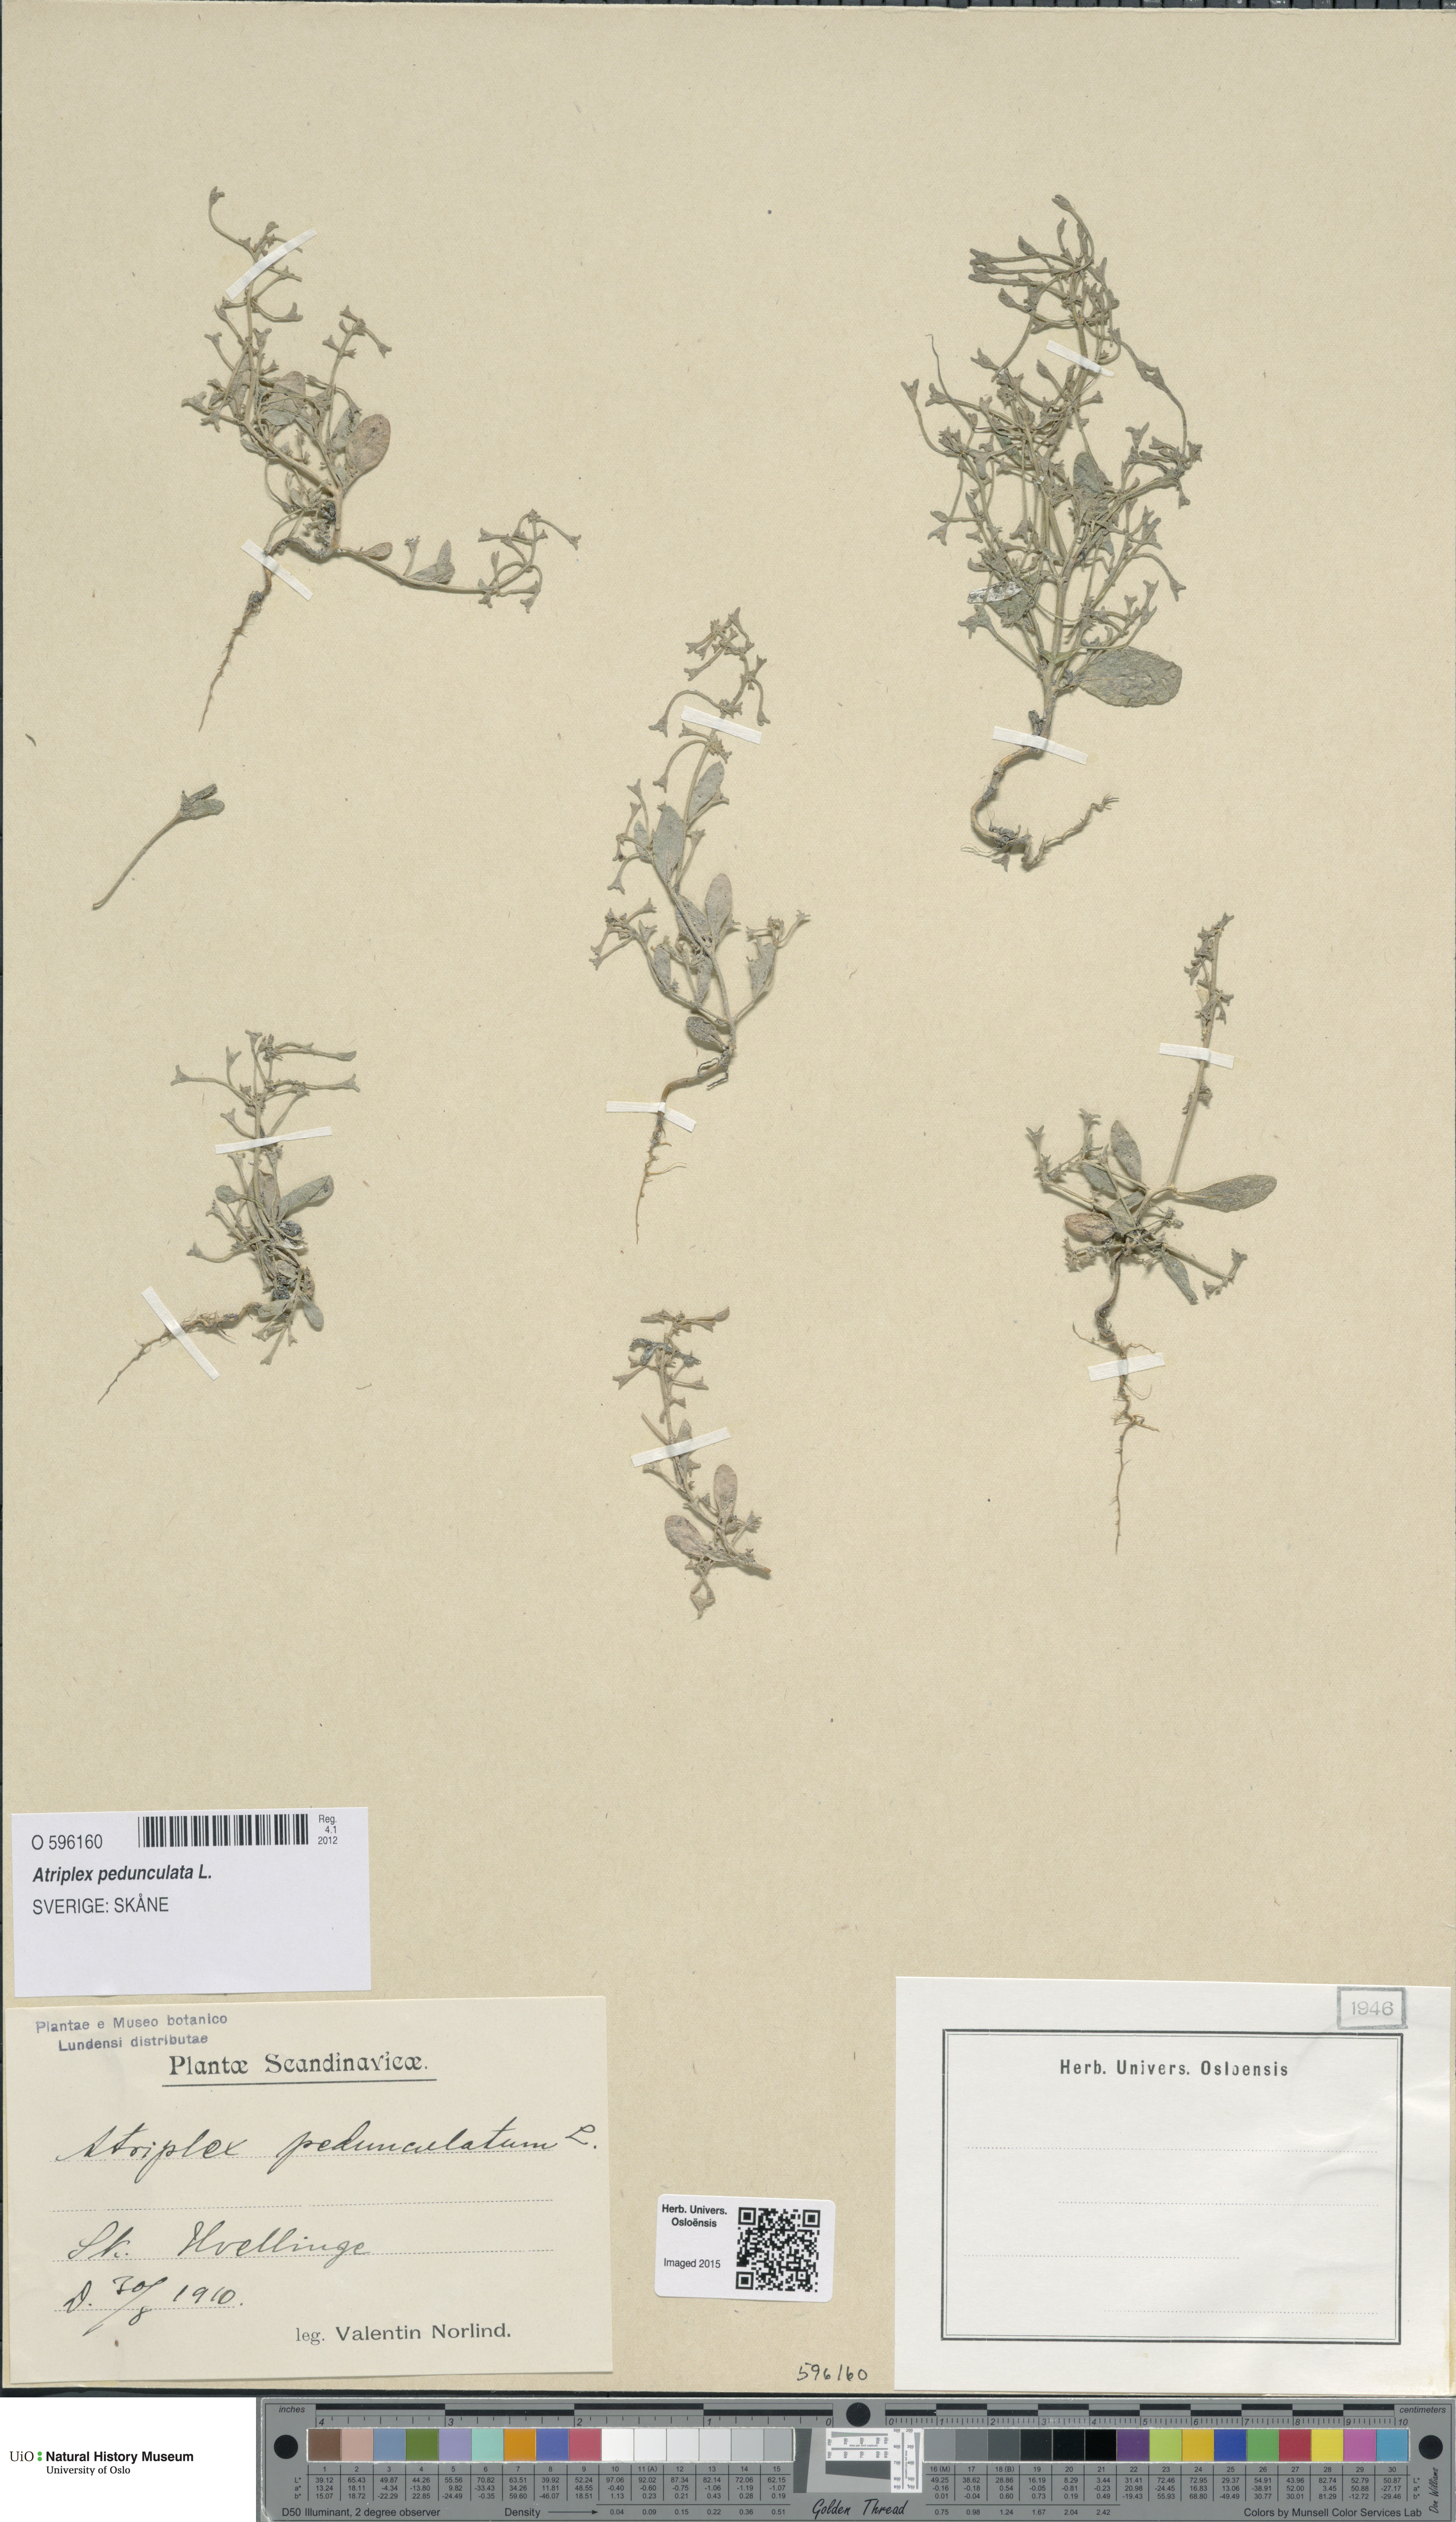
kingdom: Plantae
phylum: Tracheophyta
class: Magnoliopsida
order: Caryophyllales
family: Amaranthaceae
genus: Halimione
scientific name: Halimione pedunculata
